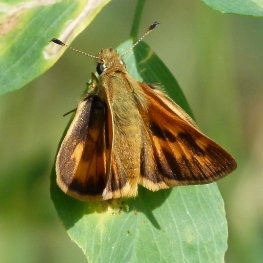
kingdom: Animalia
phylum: Arthropoda
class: Insecta
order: Lepidoptera
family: Hesperiidae
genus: Ochlodes
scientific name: Ochlodes sylvanoides
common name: Woodland Skipper
